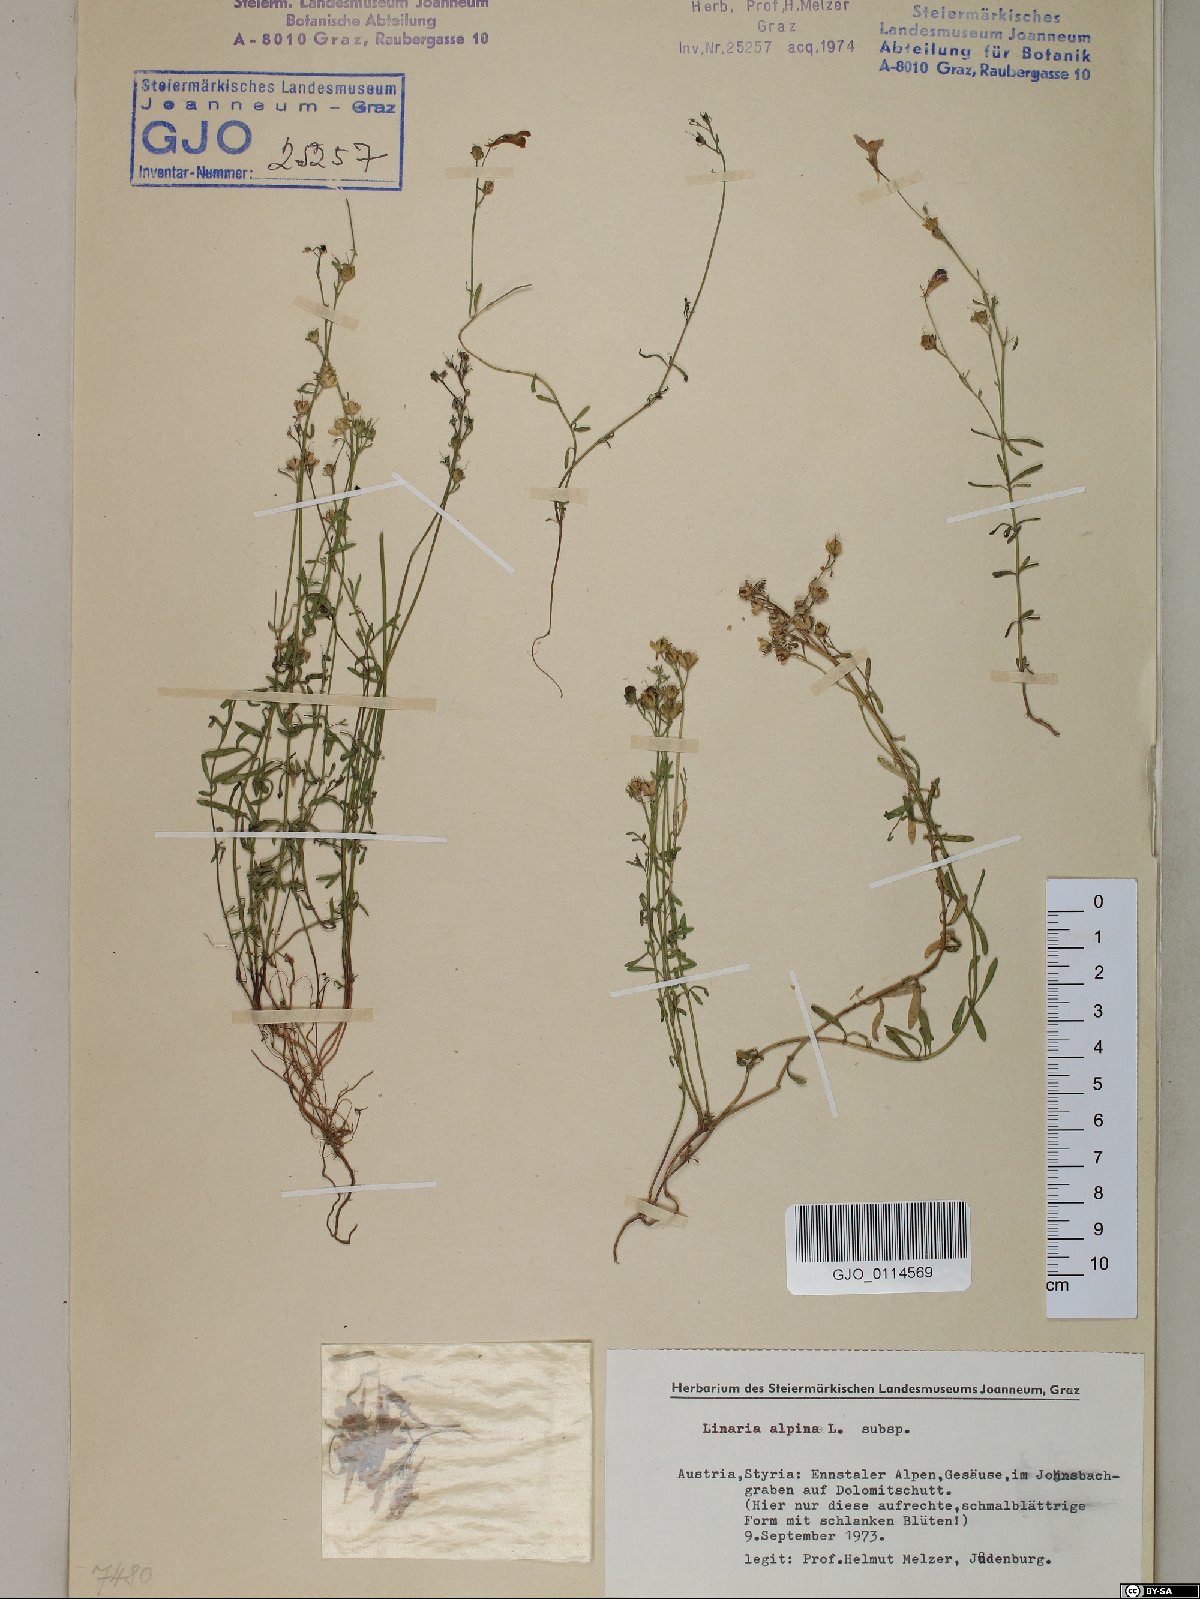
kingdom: Plantae
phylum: Tracheophyta
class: Magnoliopsida
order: Lamiales
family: Plantaginaceae
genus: Linaria
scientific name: Linaria alpina
